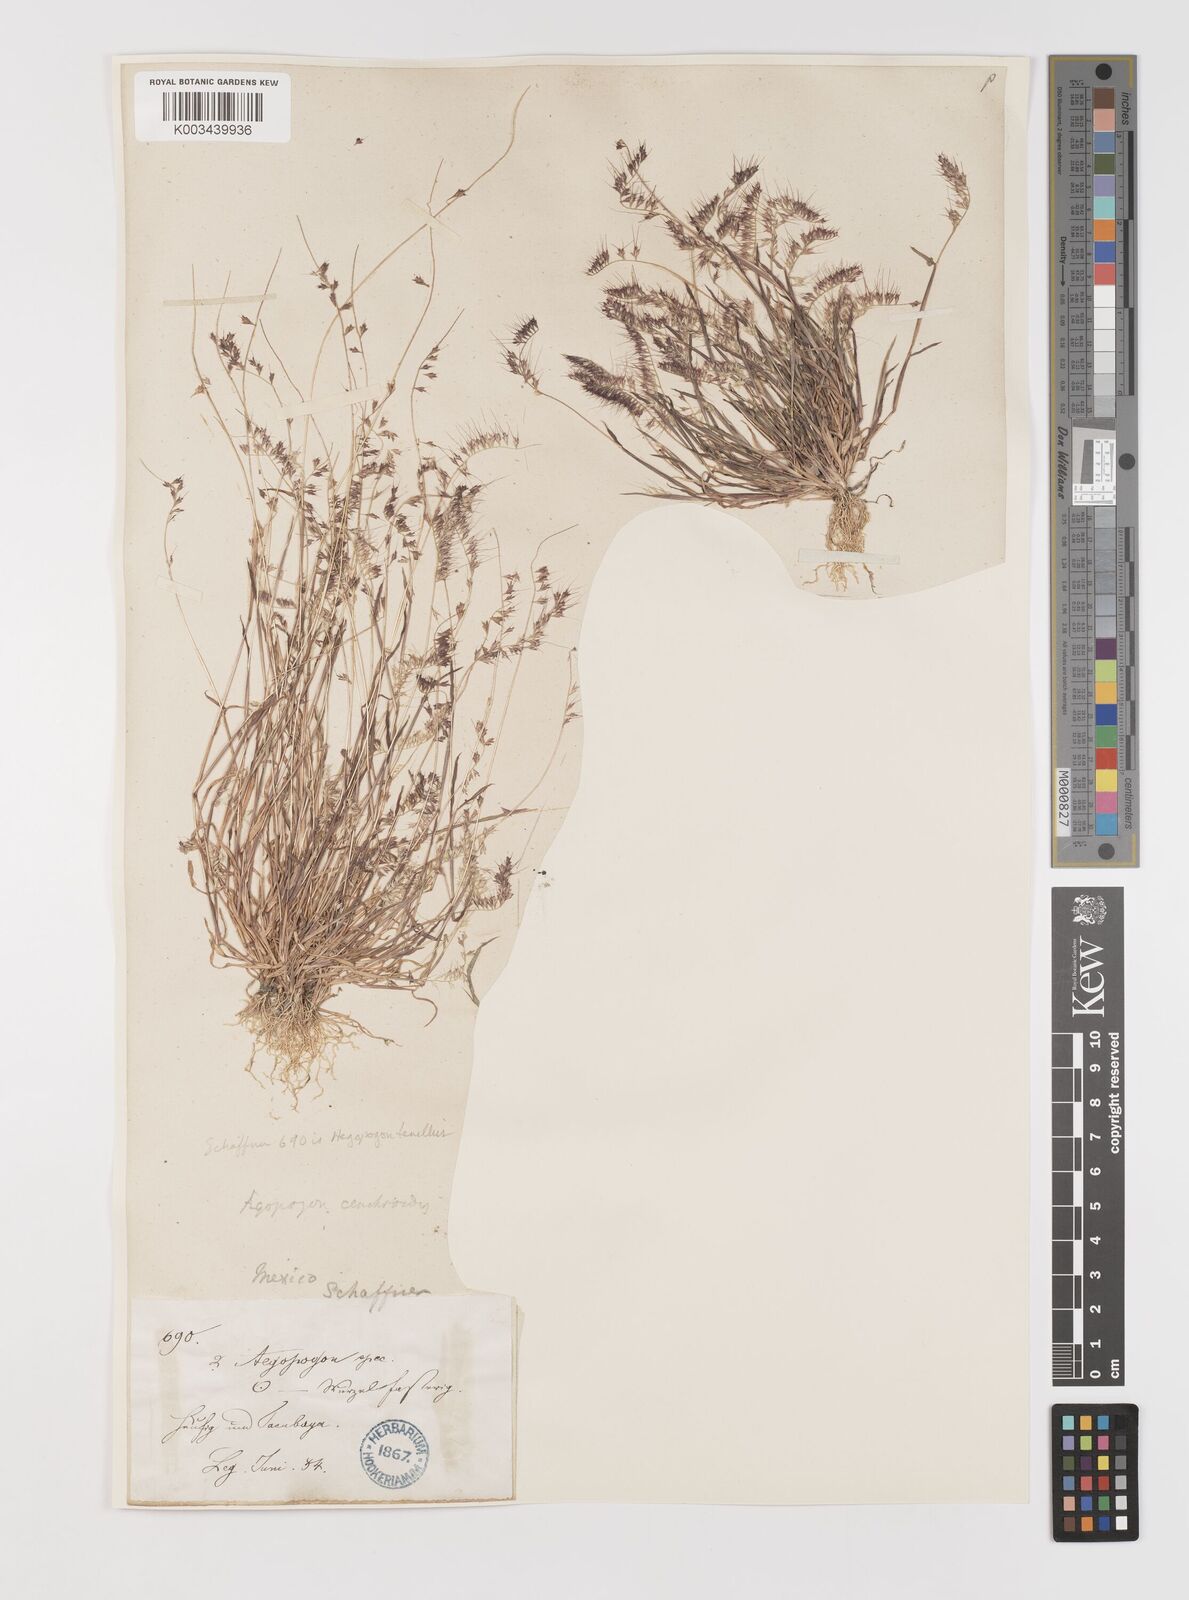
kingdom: Plantae
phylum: Tracheophyta
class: Liliopsida
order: Poales
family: Poaceae
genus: Muhlenbergia
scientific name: Muhlenbergia uniseta
